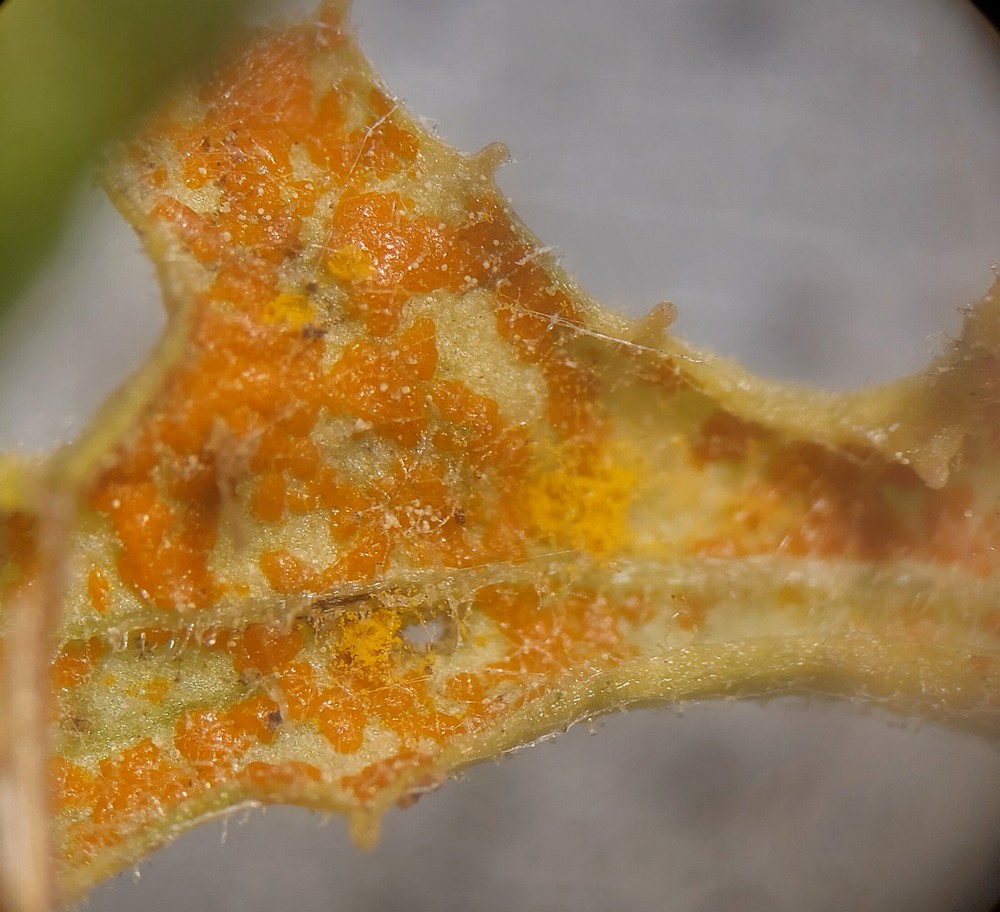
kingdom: Fungi
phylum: Basidiomycota
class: Pucciniomycetes
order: Pucciniales
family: Coleosporiaceae
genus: Coleosporium
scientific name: Coleosporium senecionis
